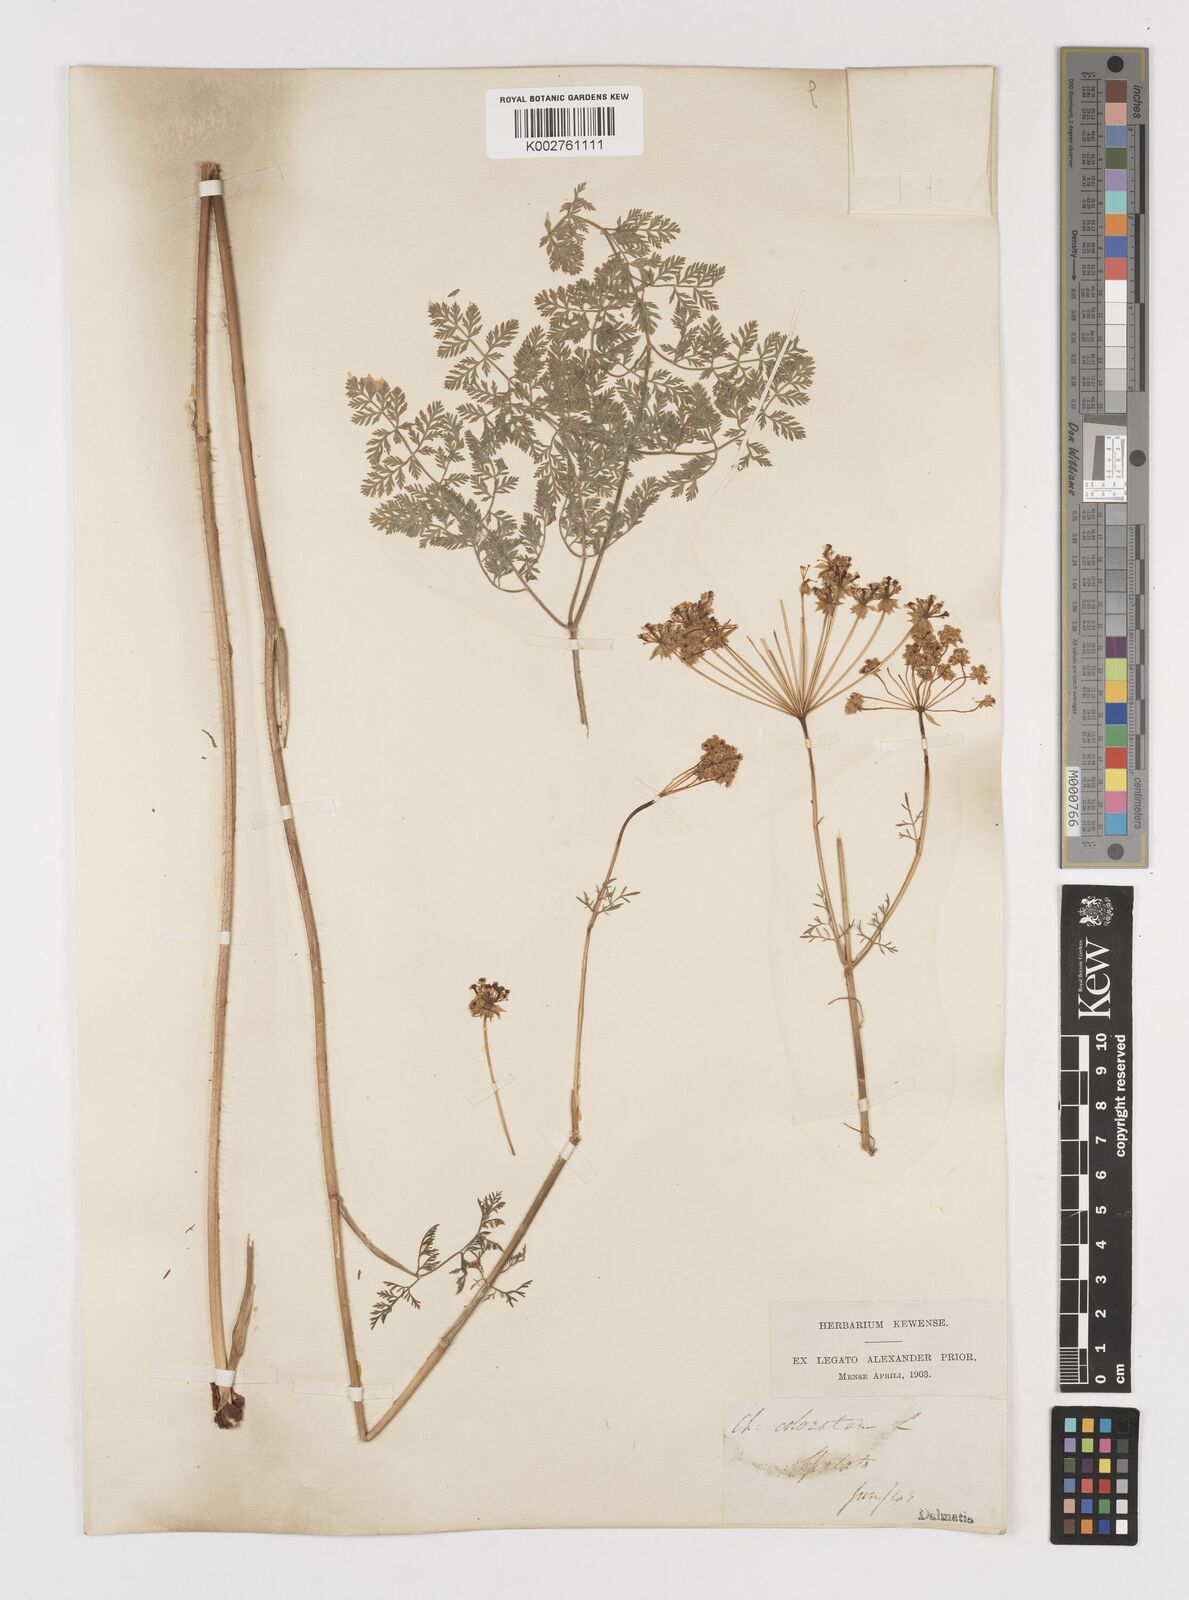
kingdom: Plantae
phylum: Tracheophyta
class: Magnoliopsida
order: Apiales
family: Apiaceae
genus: Chaerophyllum
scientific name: Chaerophyllum coloratum
